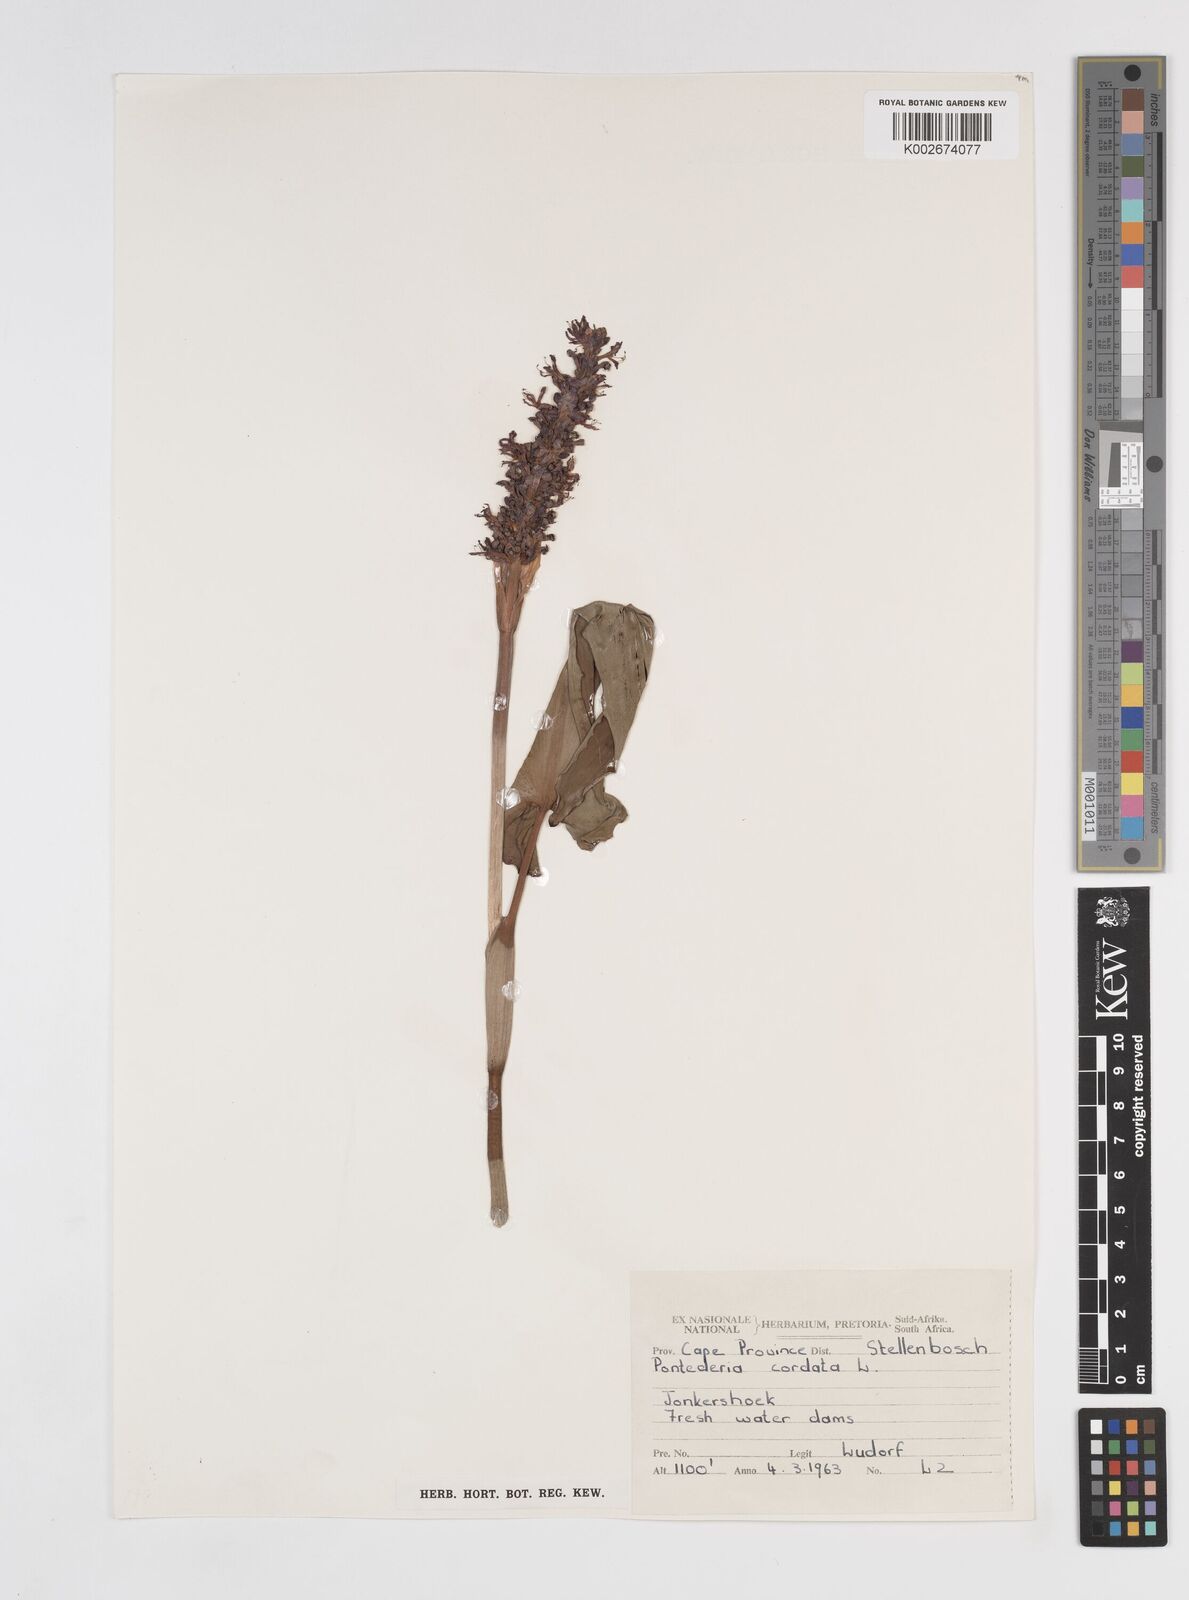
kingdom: Plantae
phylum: Tracheophyta
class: Liliopsida
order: Commelinales
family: Pontederiaceae
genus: Pontederia
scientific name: Pontederia cordata
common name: Pickerelweed
